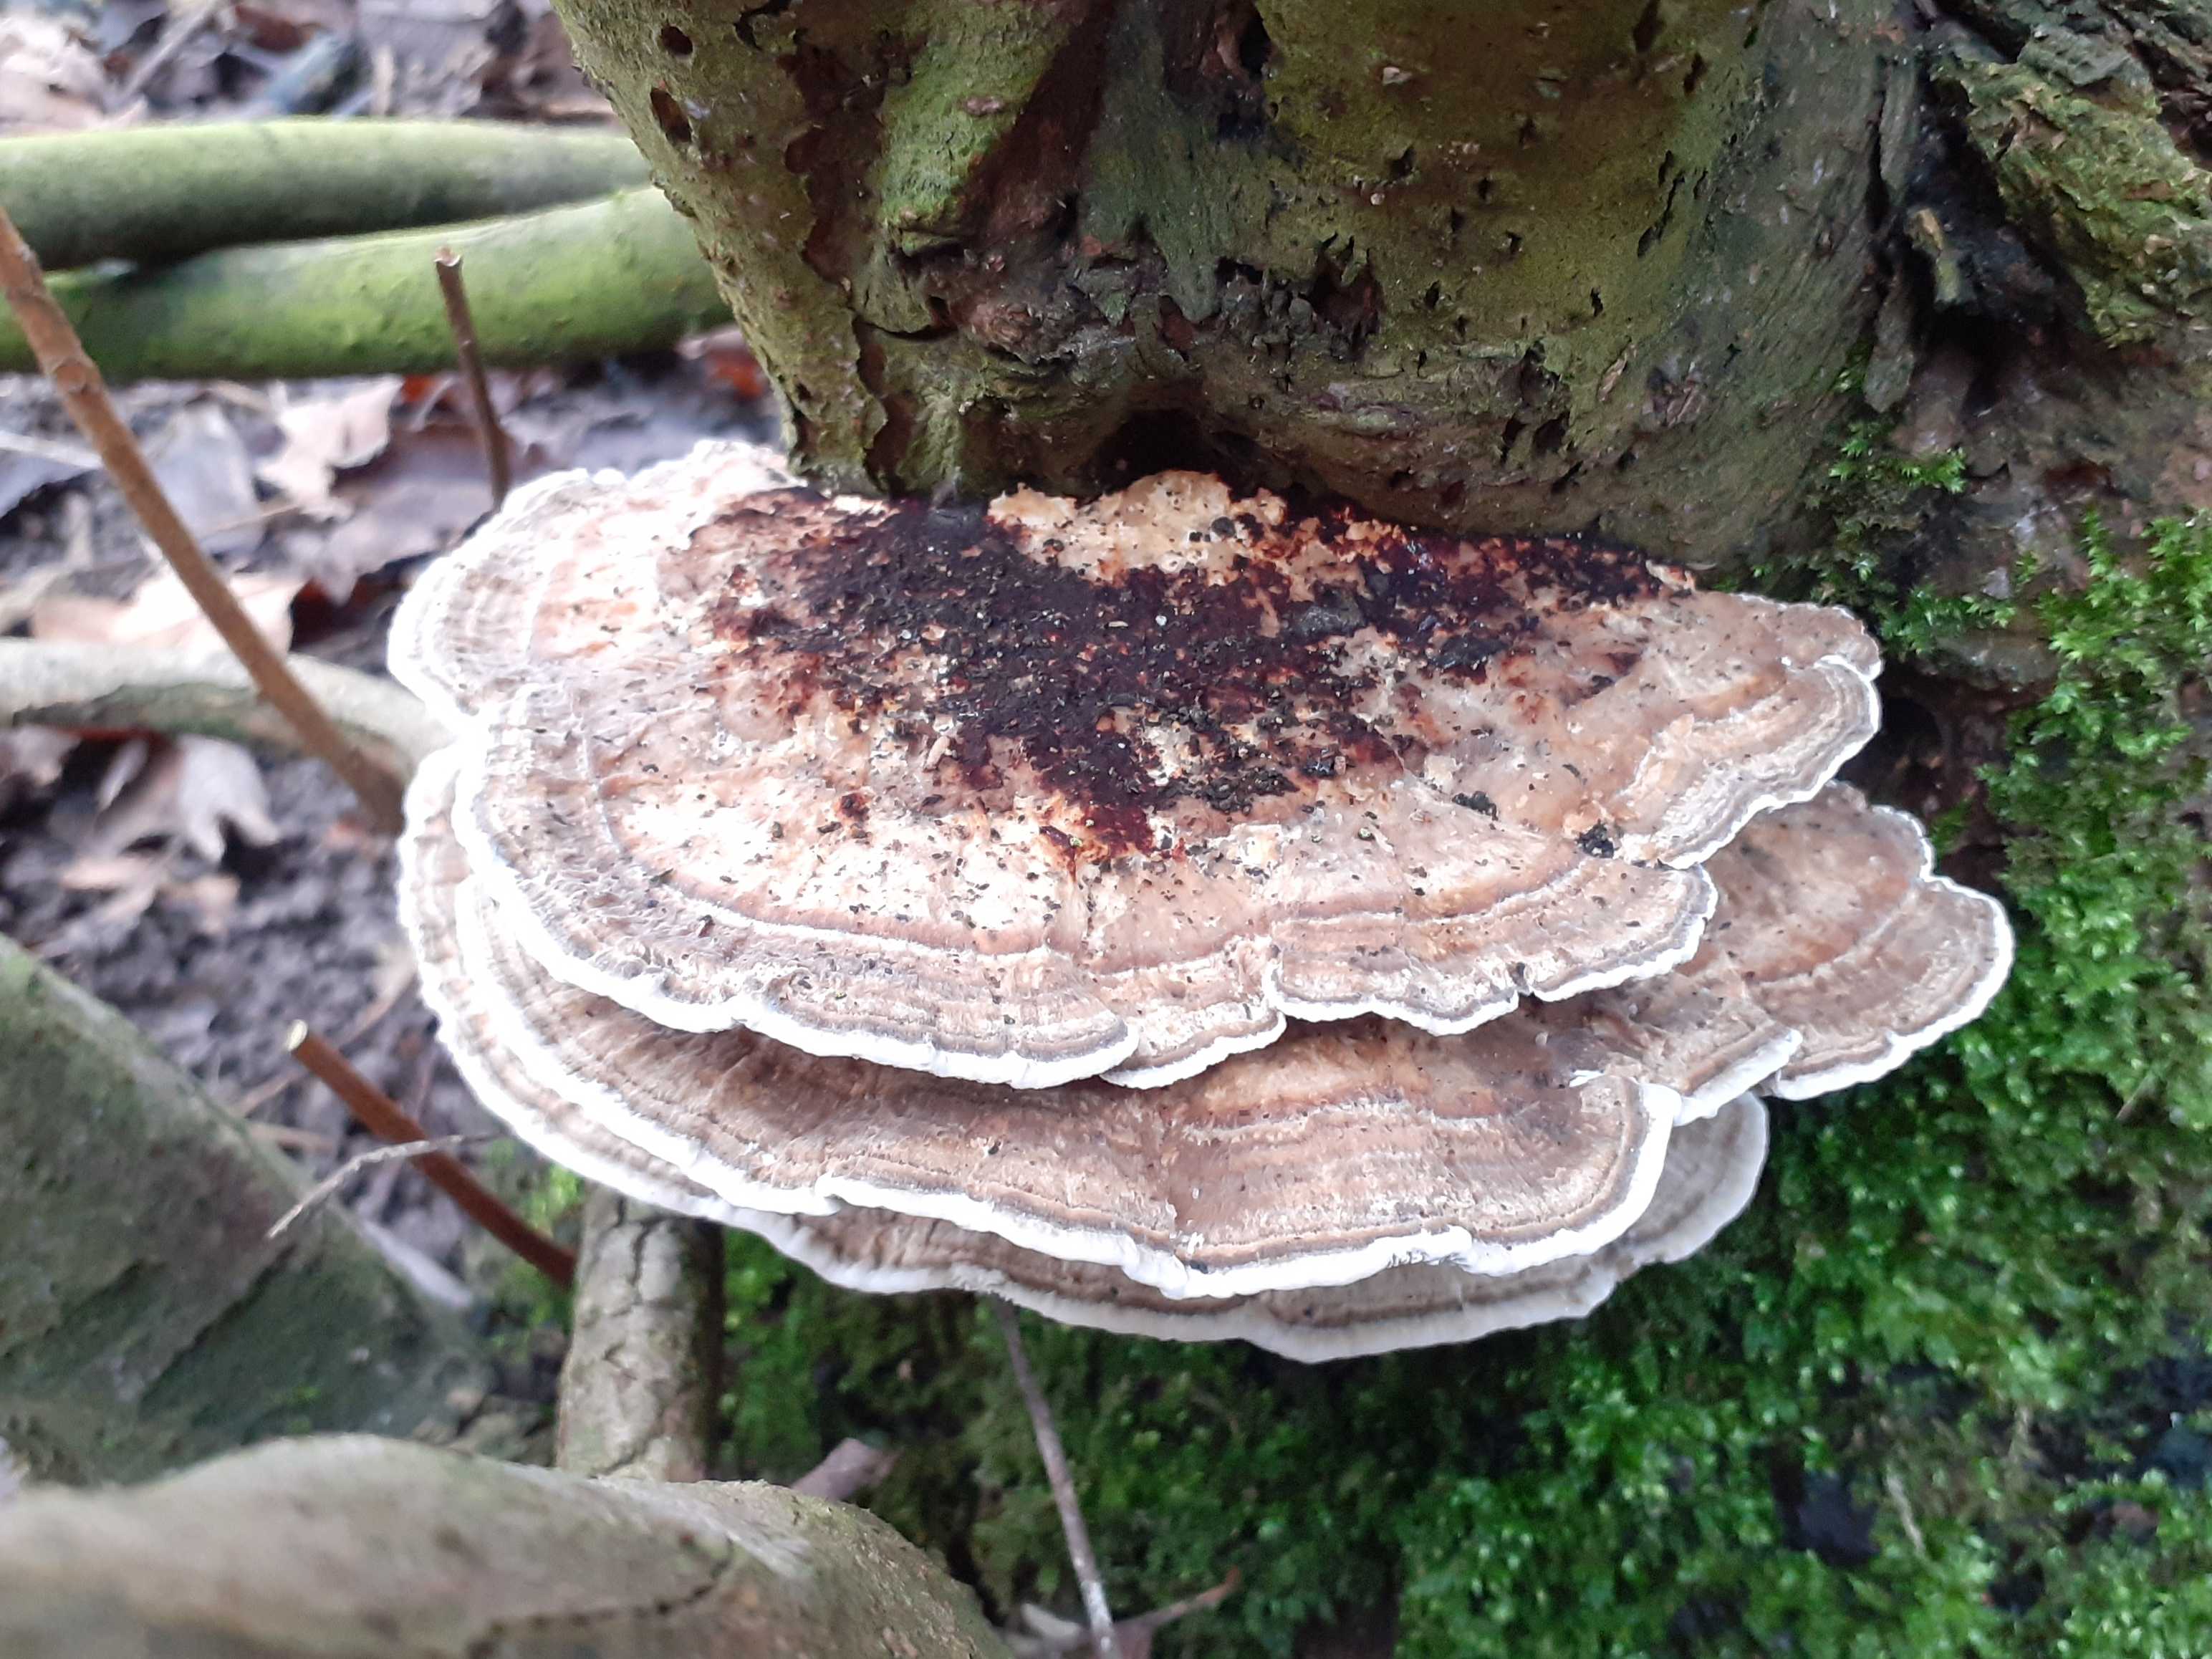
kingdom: Fungi
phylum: Basidiomycota
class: Agaricomycetes
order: Polyporales
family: Polyporaceae
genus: Daedaleopsis
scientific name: Daedaleopsis confragosa
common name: rødmende læderporesvamp
